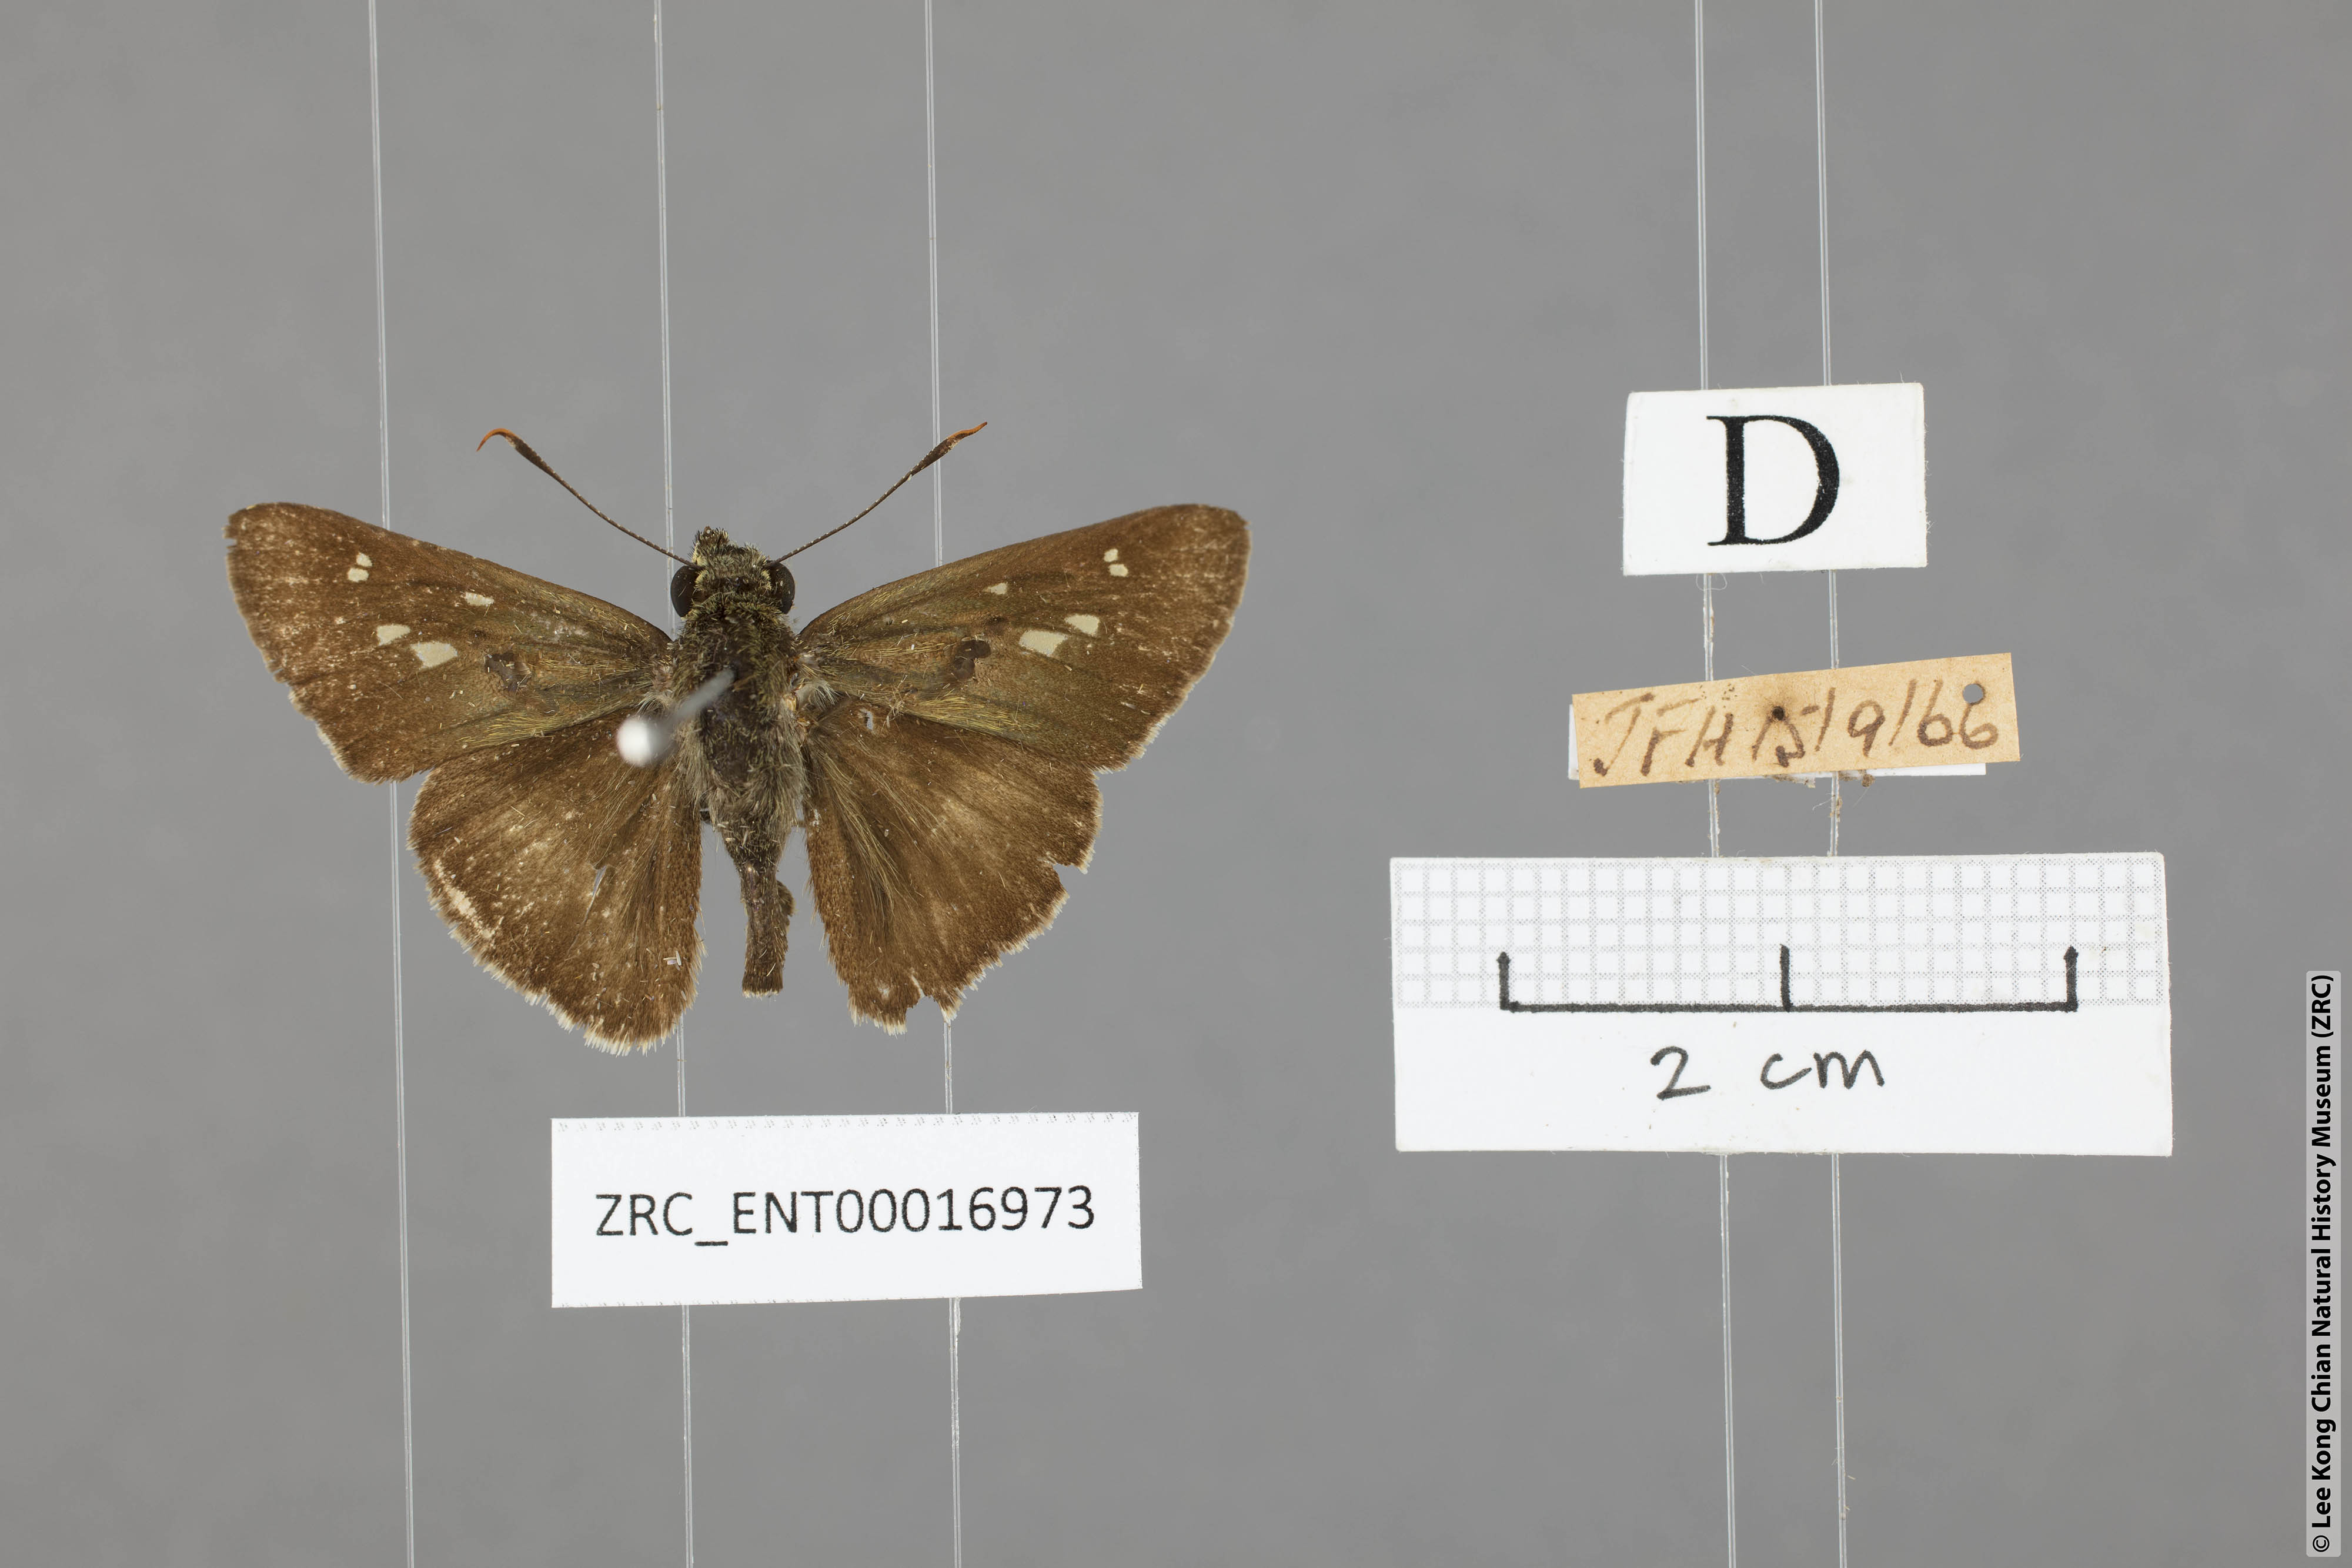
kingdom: Animalia
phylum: Arthropoda
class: Insecta
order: Lepidoptera
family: Hesperiidae
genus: Halpe
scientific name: Halpe elana
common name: Narrow-banded ace
